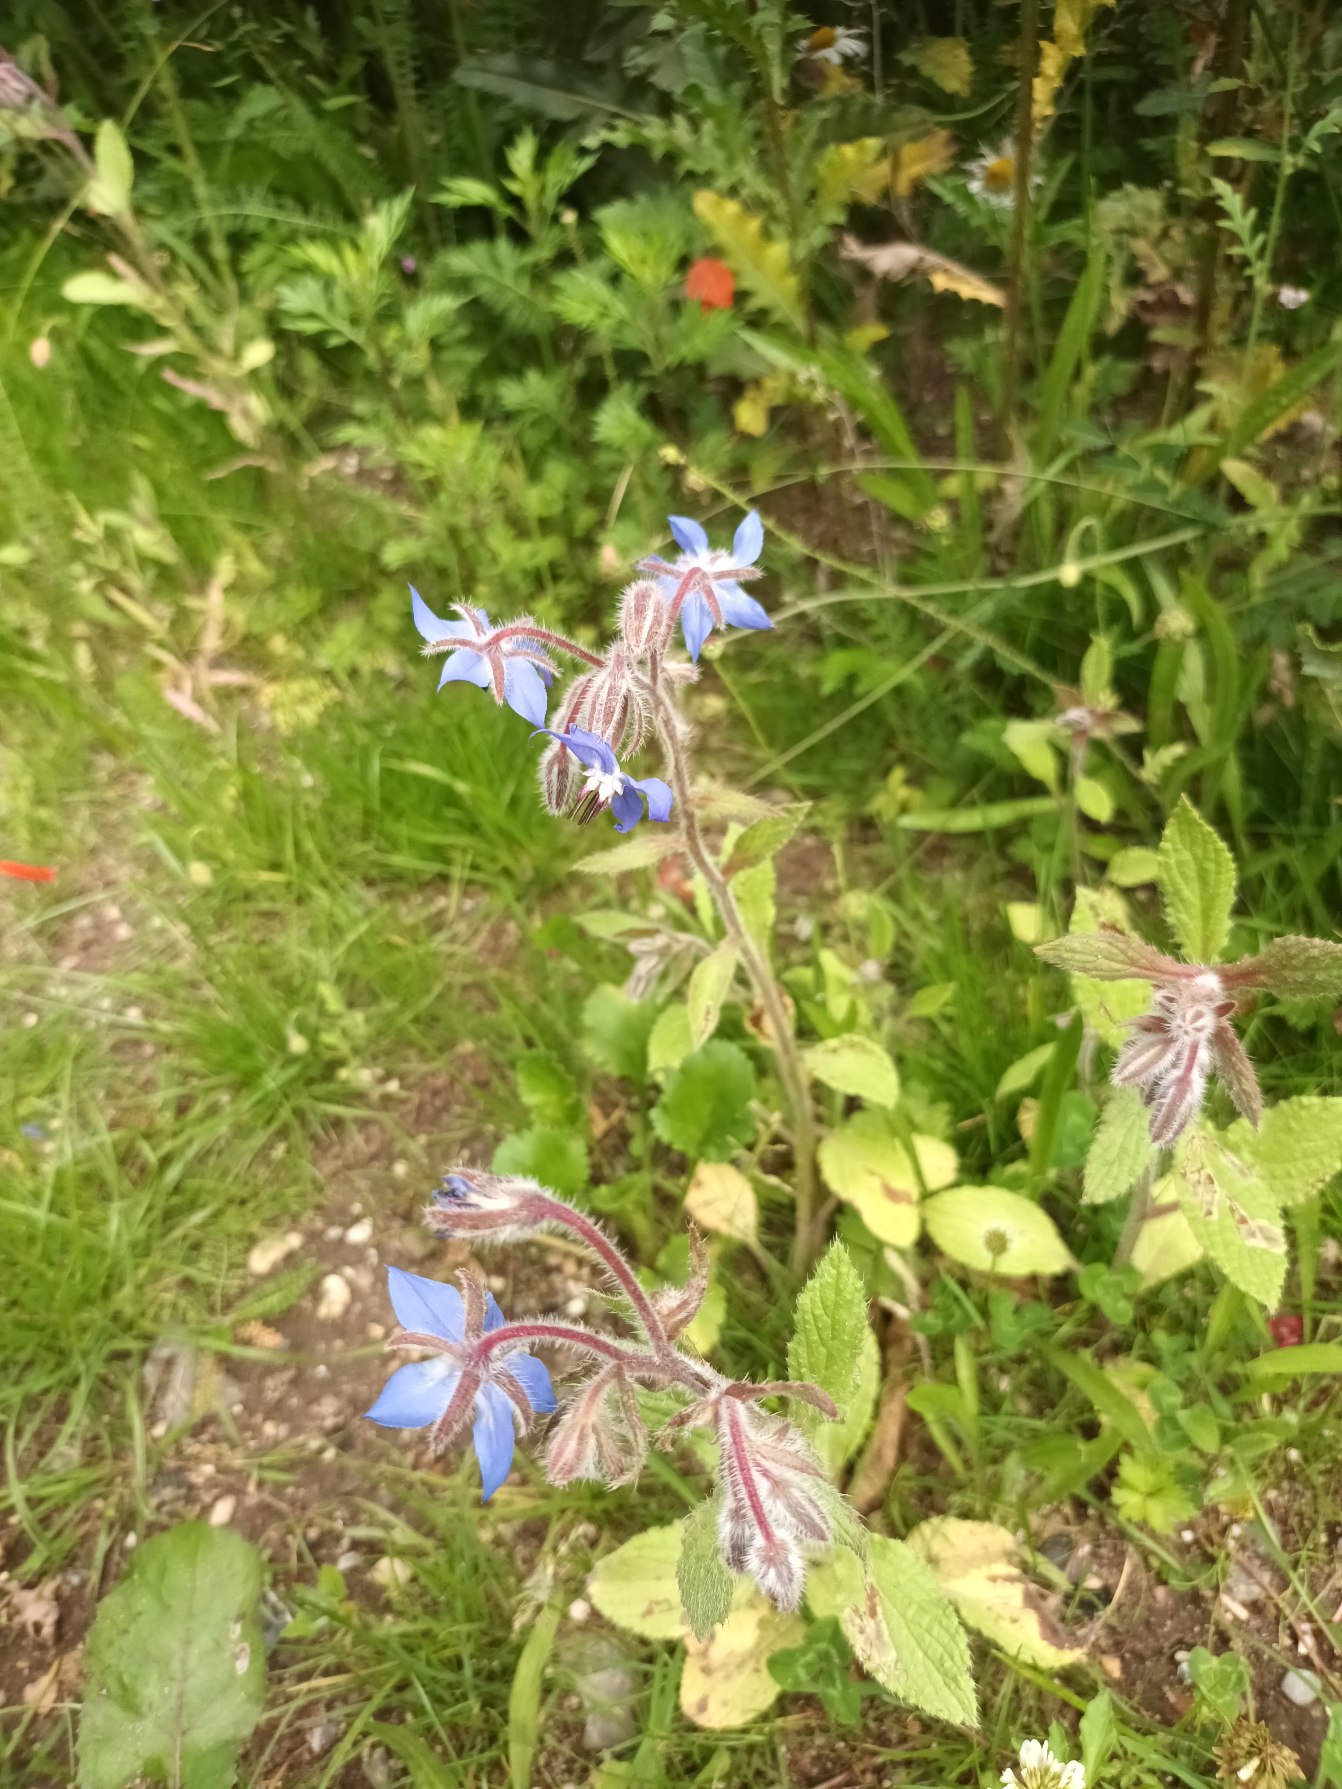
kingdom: Plantae
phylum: Tracheophyta
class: Magnoliopsida
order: Boraginales
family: Boraginaceae
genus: Borago
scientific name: Borago officinalis
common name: Hjulkrone
